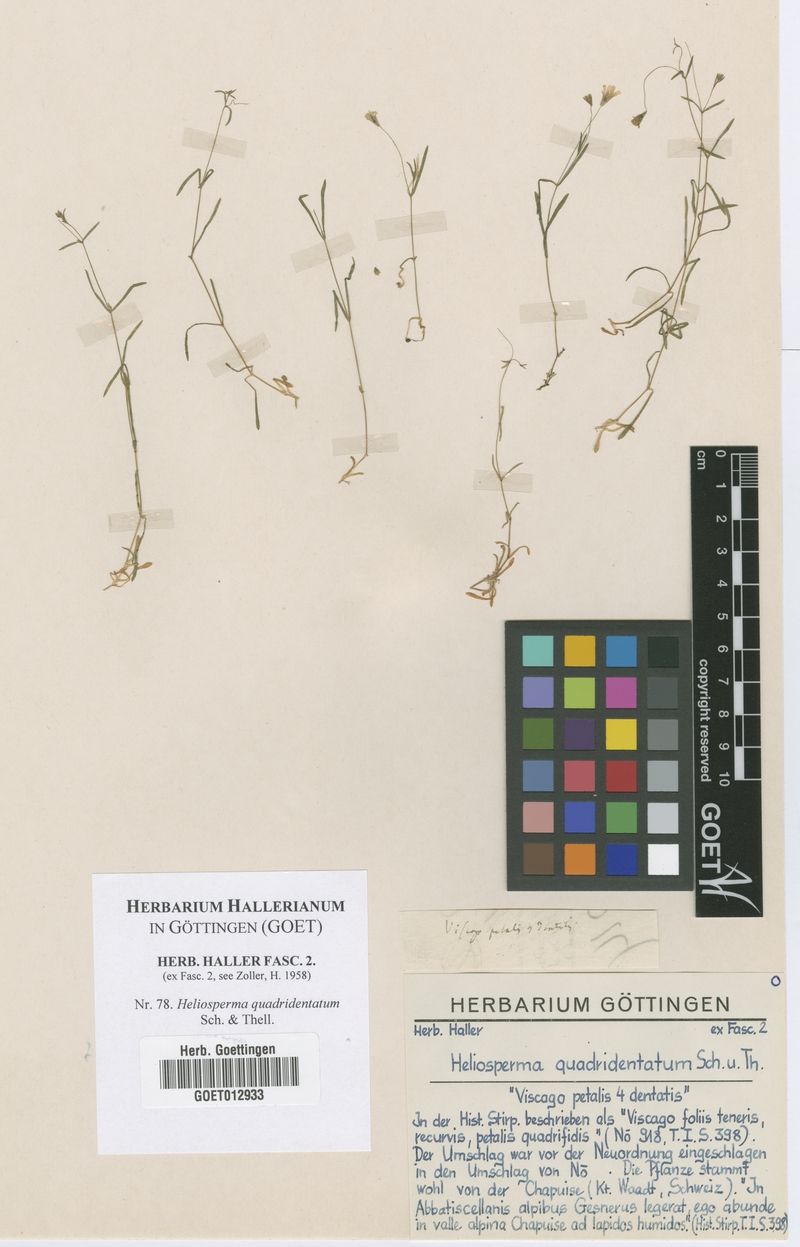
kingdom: Plantae
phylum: Tracheophyta
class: Magnoliopsida
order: Caryophyllales
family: Caryophyllaceae
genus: Heliosperma
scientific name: Heliosperma alpestre
